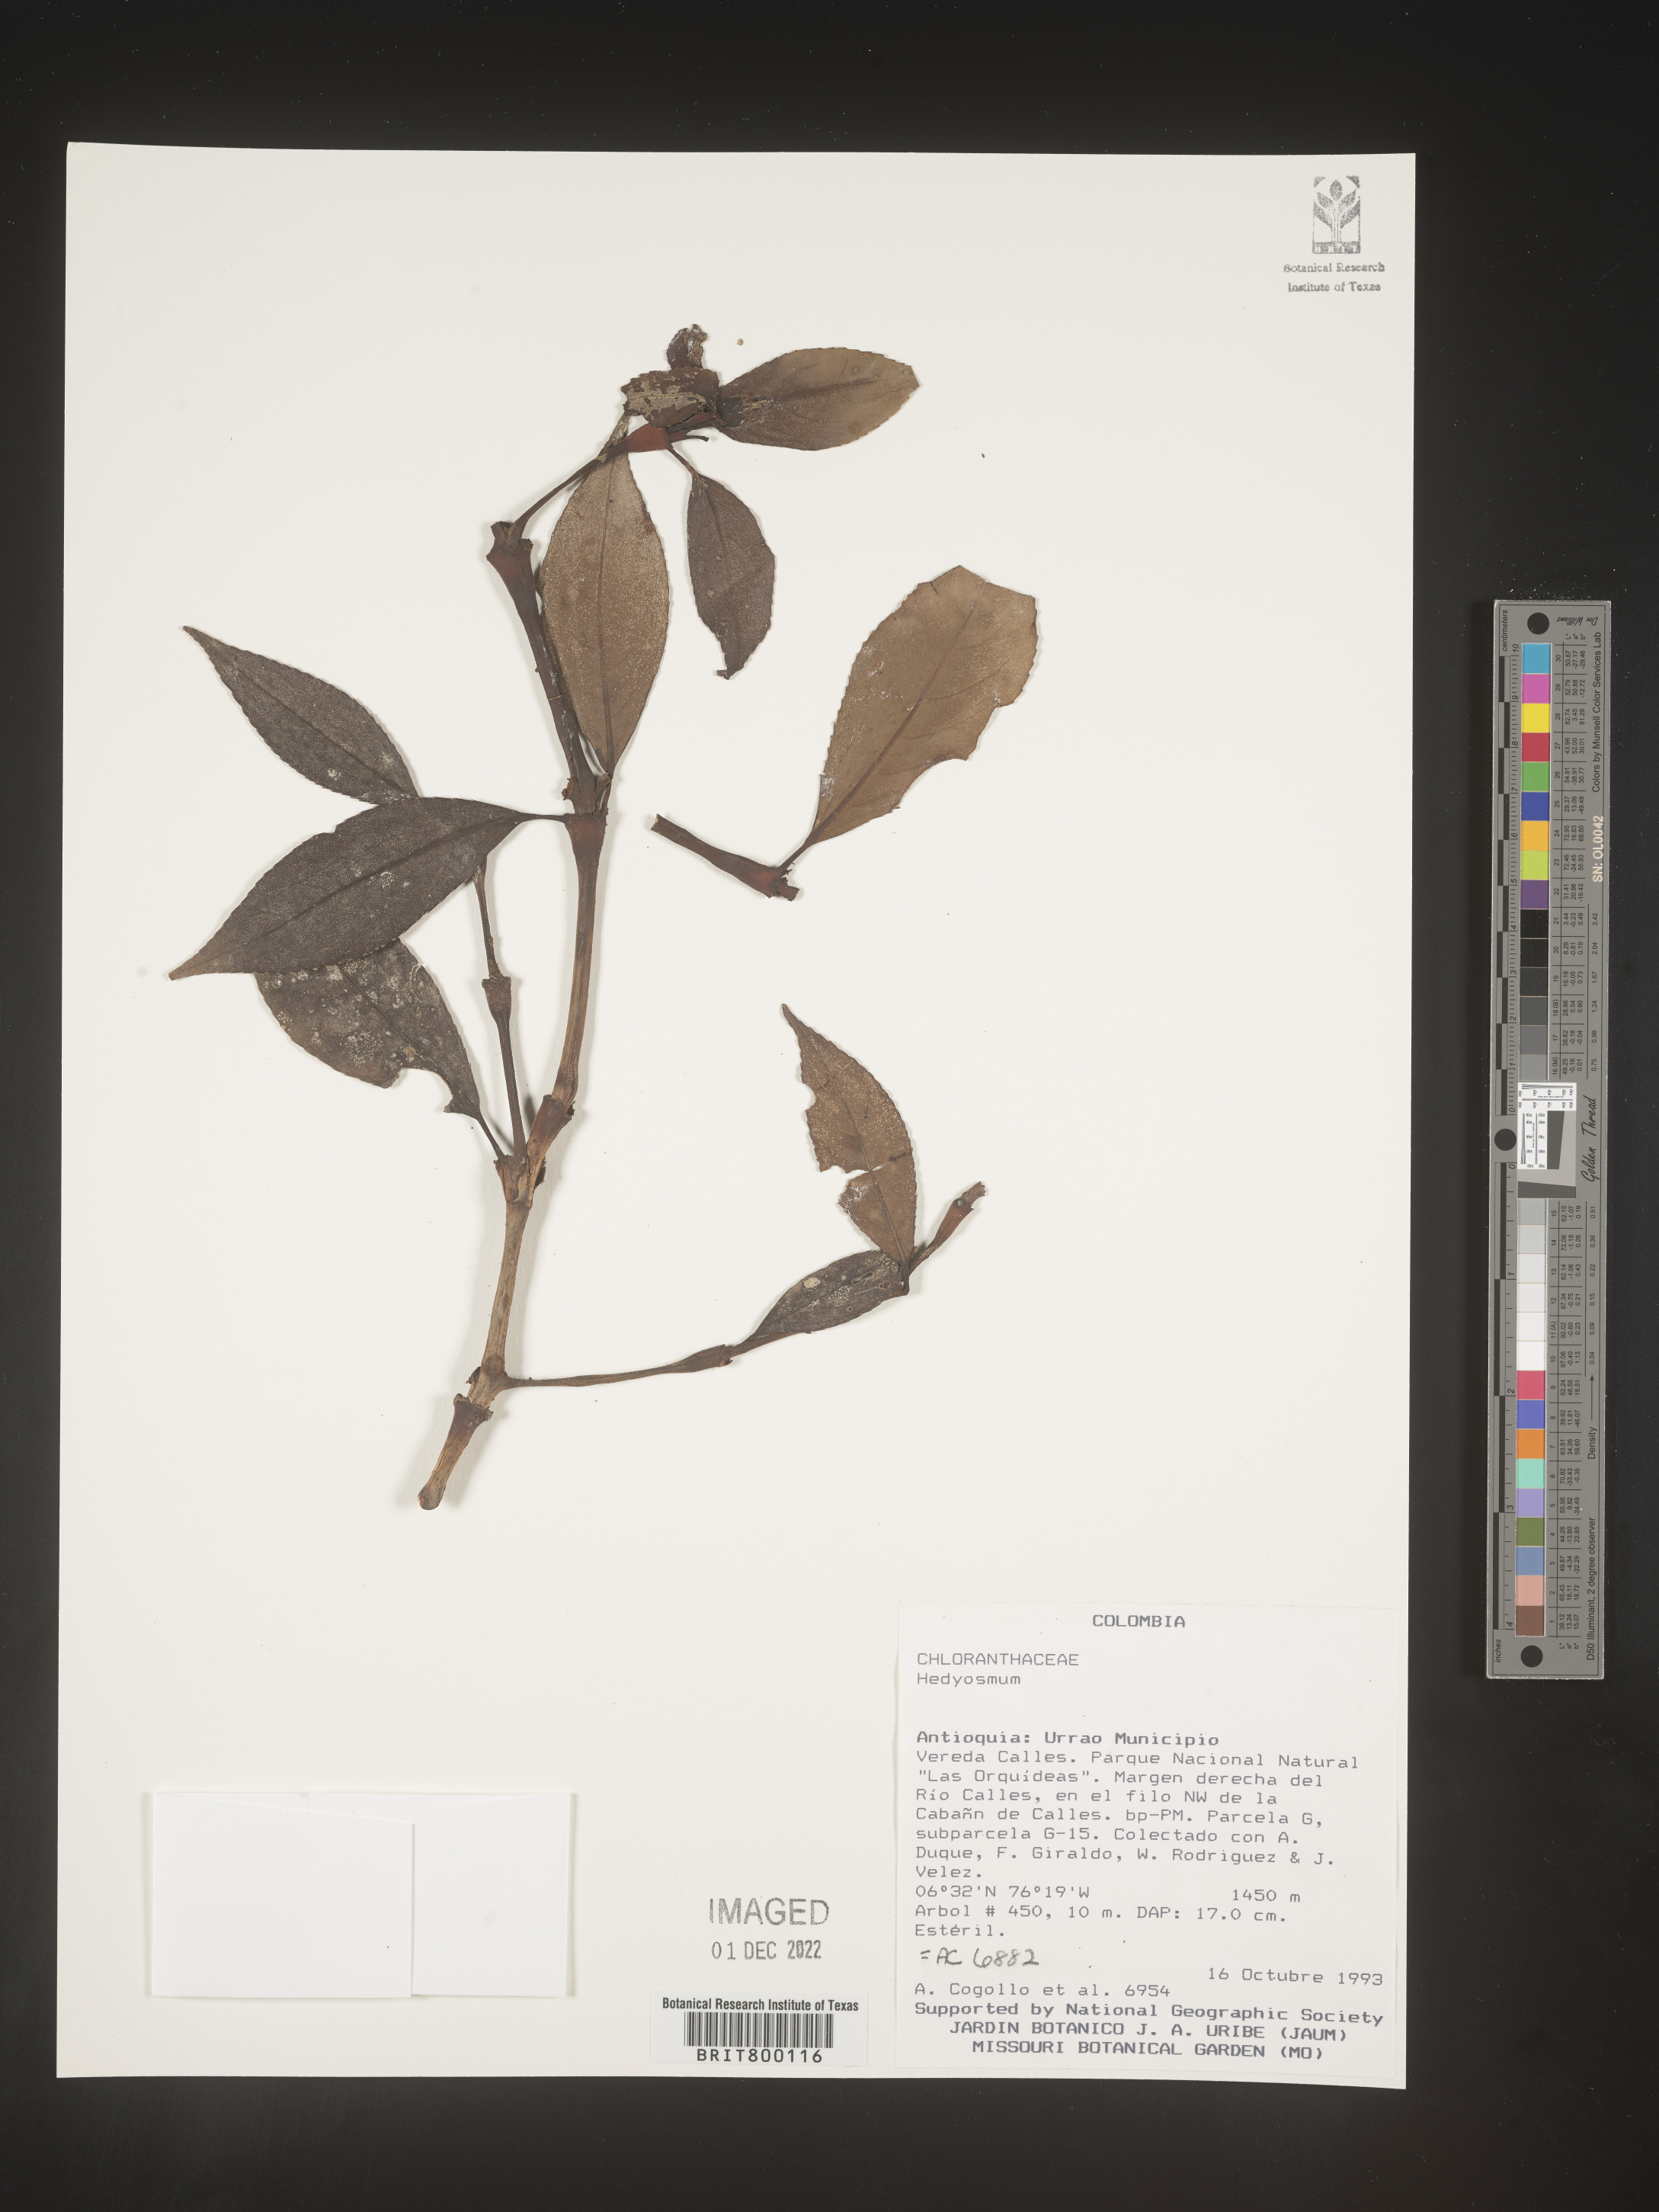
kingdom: Plantae
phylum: Tracheophyta
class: Magnoliopsida
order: Chloranthales
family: Chloranthaceae
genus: Hedyosmum
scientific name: Hedyosmum
